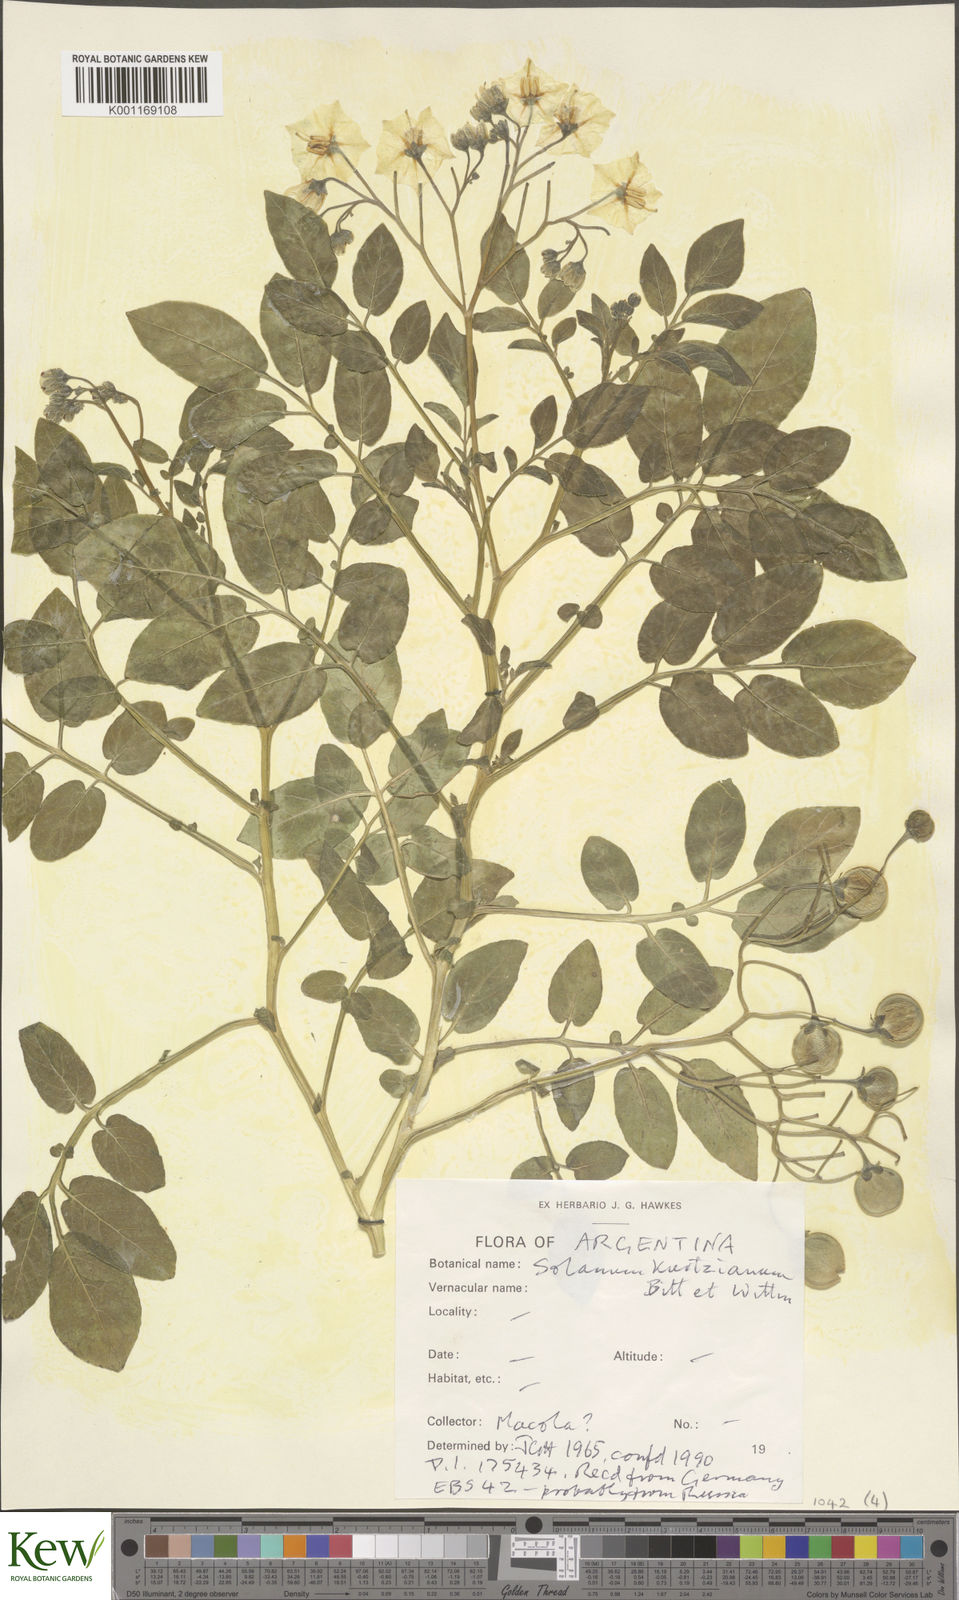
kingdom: Plantae
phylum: Tracheophyta
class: Magnoliopsida
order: Solanales
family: Solanaceae
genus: Solanum
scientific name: Solanum kurtzianum
